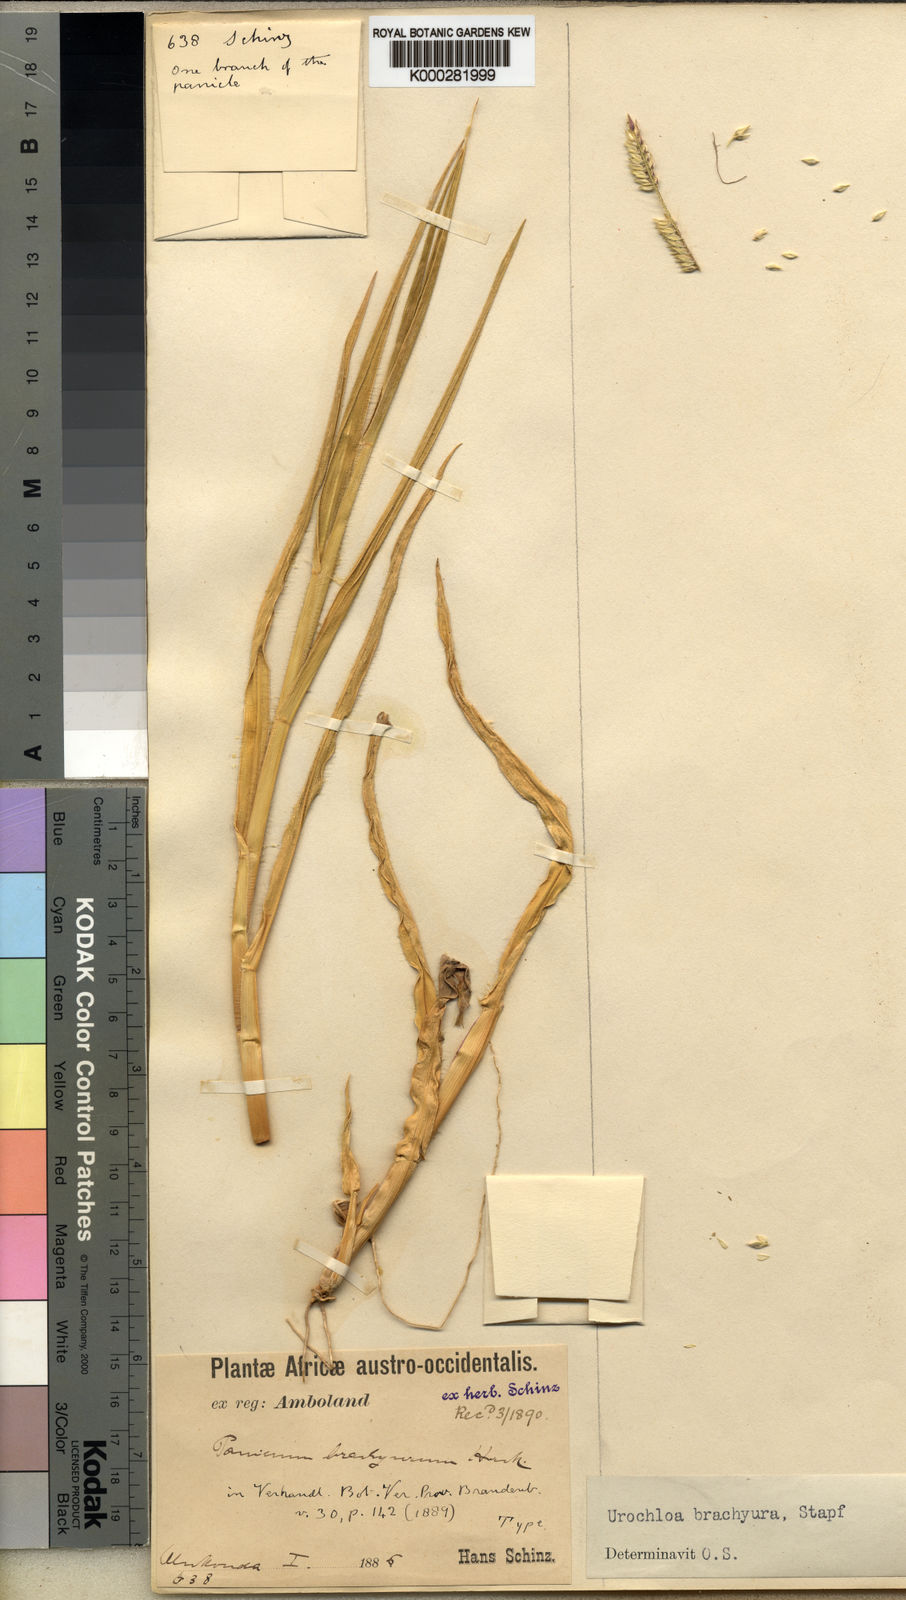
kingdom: Plantae
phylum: Tracheophyta
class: Liliopsida
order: Poales
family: Poaceae
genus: Urochloa
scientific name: Urochloa brachyura
